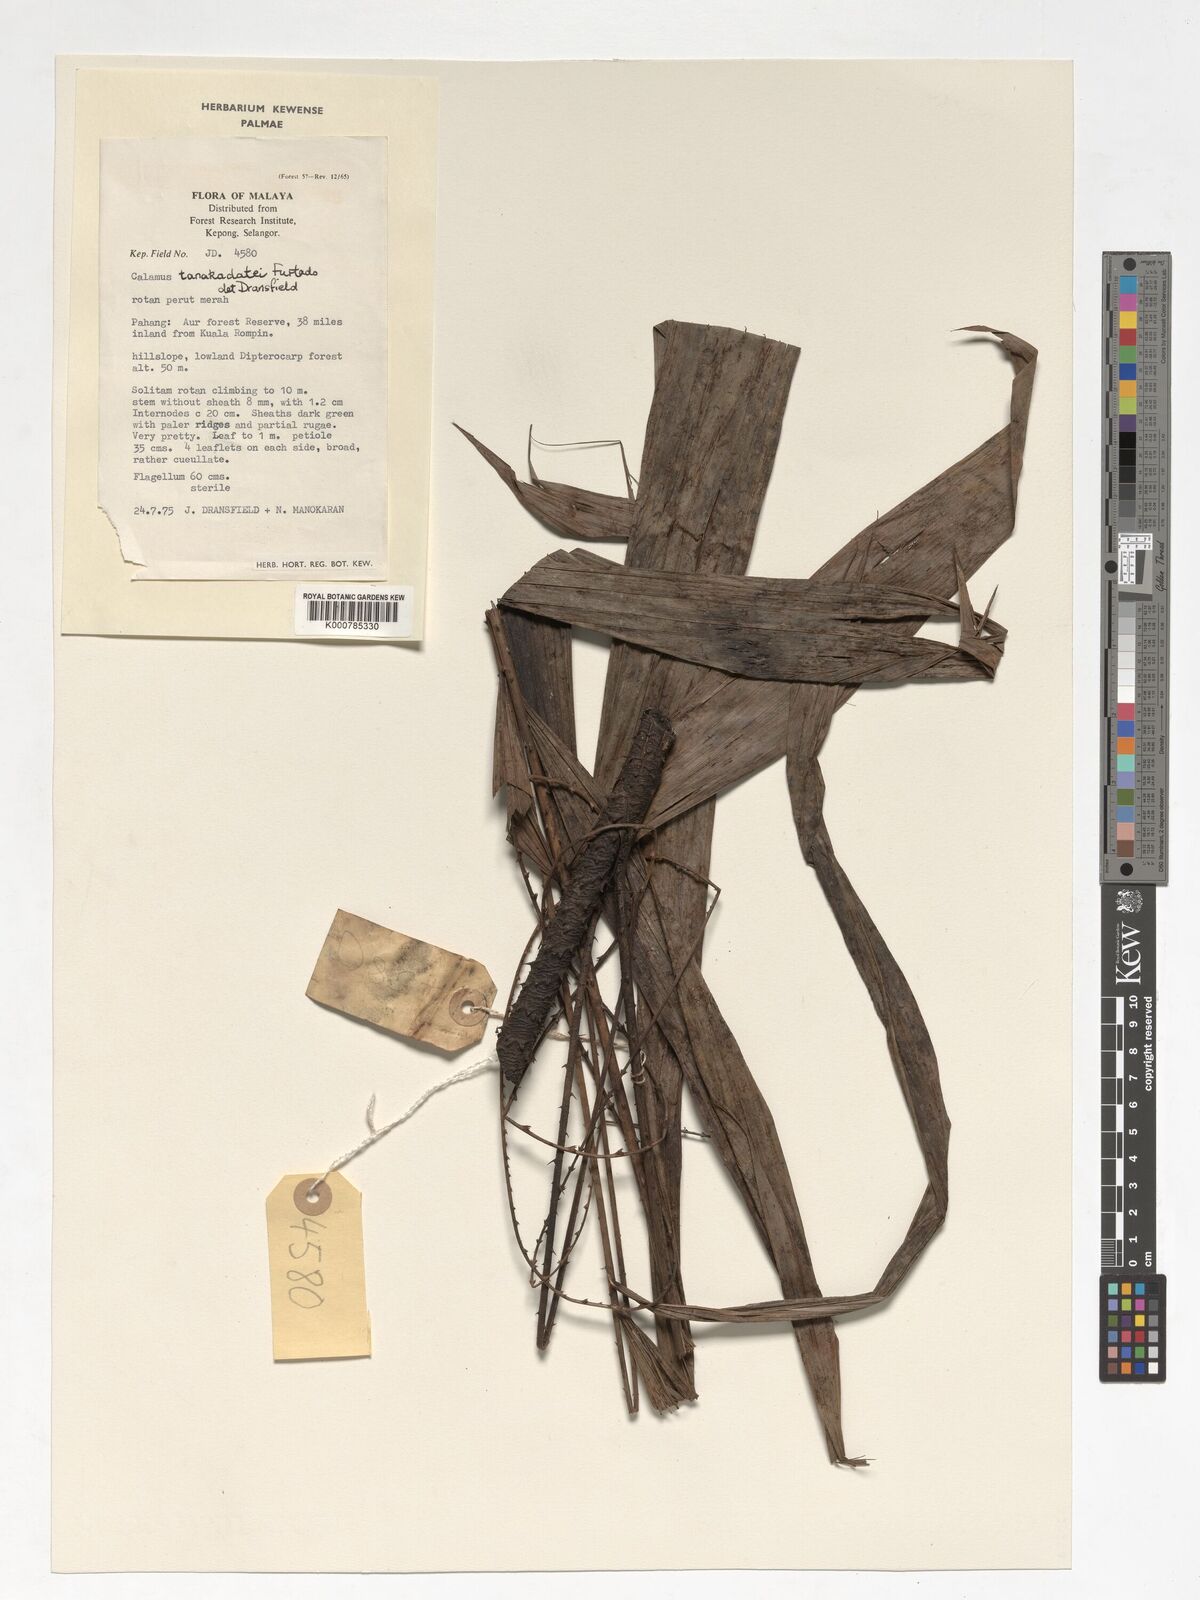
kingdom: Plantae
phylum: Tracheophyta
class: Liliopsida
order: Arecales
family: Arecaceae
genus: Calamus
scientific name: Calamus ruvidus
